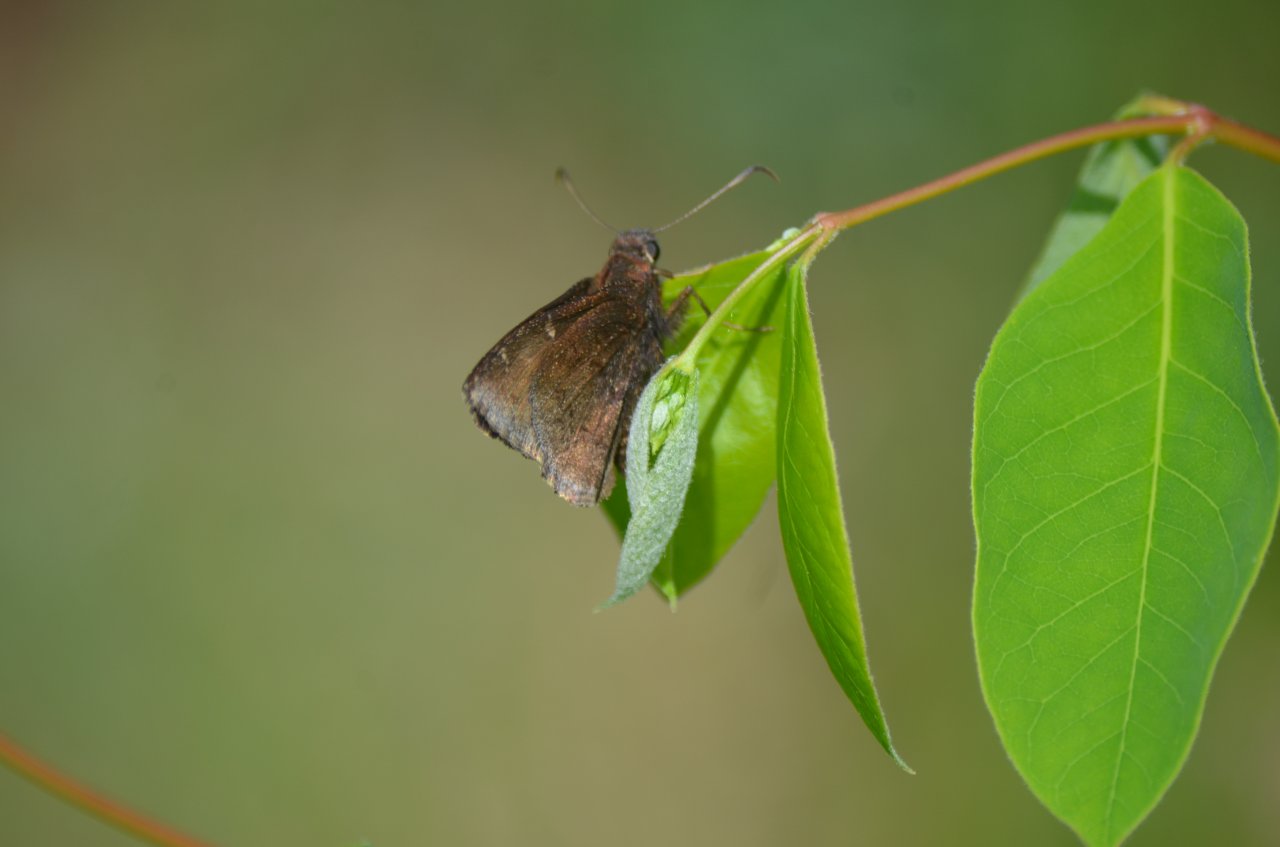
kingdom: Animalia
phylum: Arthropoda
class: Insecta
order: Lepidoptera
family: Hesperiidae
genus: Autochton
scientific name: Autochton
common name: Northern Cloudywing
